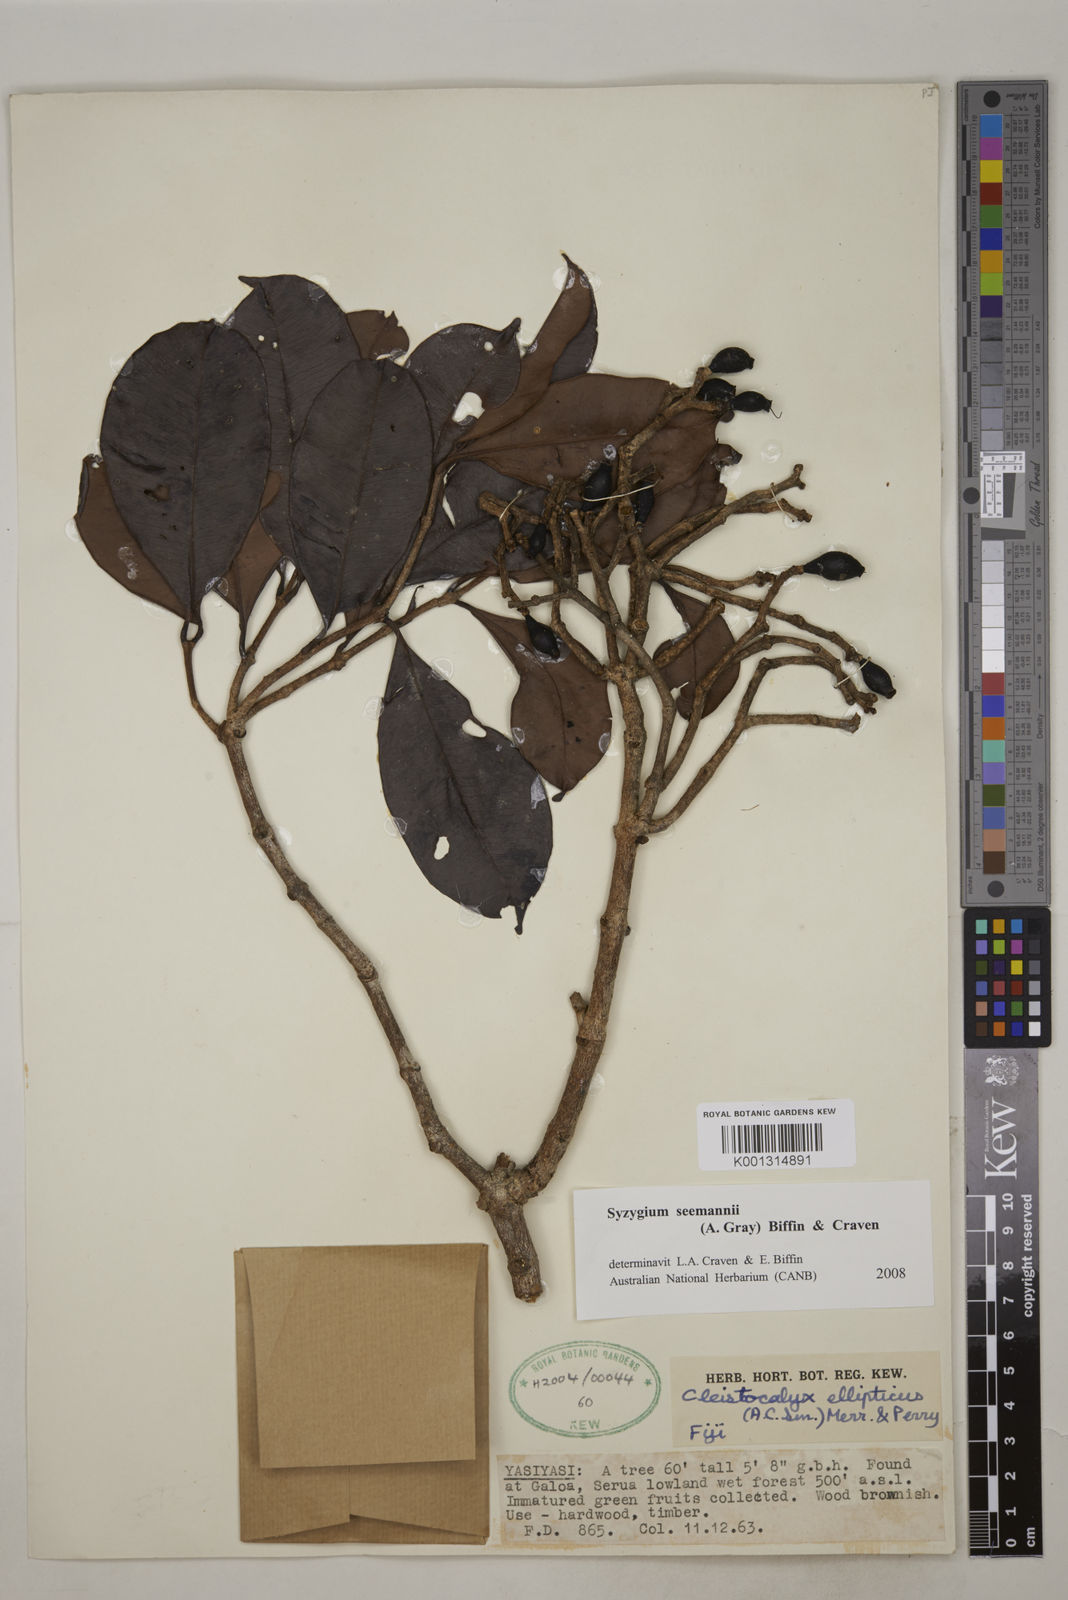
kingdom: Plantae
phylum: Tracheophyta
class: Magnoliopsida
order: Myrtales
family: Myrtaceae
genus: Syzygium
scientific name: Syzygium seemannii
